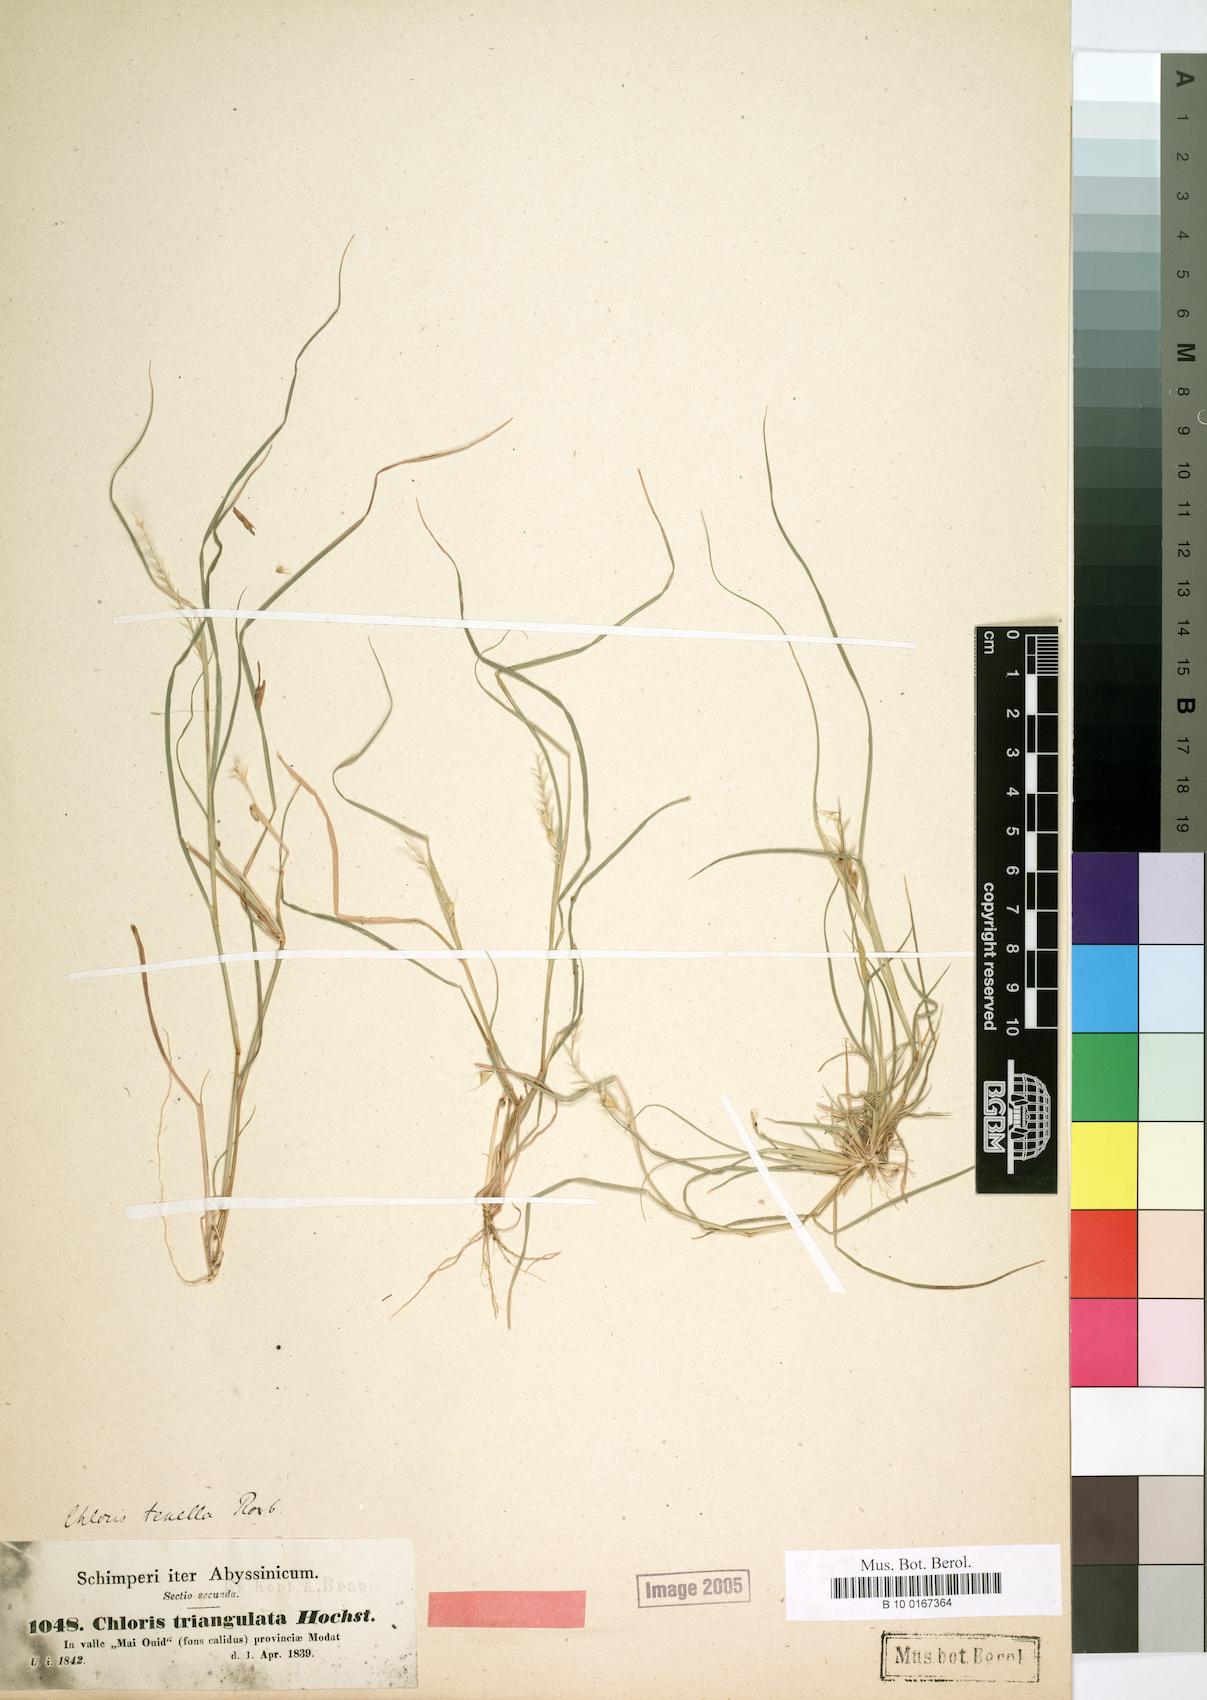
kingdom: Plantae
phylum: Tracheophyta
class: Liliopsida
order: Poales
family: Poaceae
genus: Tetrapogon
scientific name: Tetrapogon tenellus
